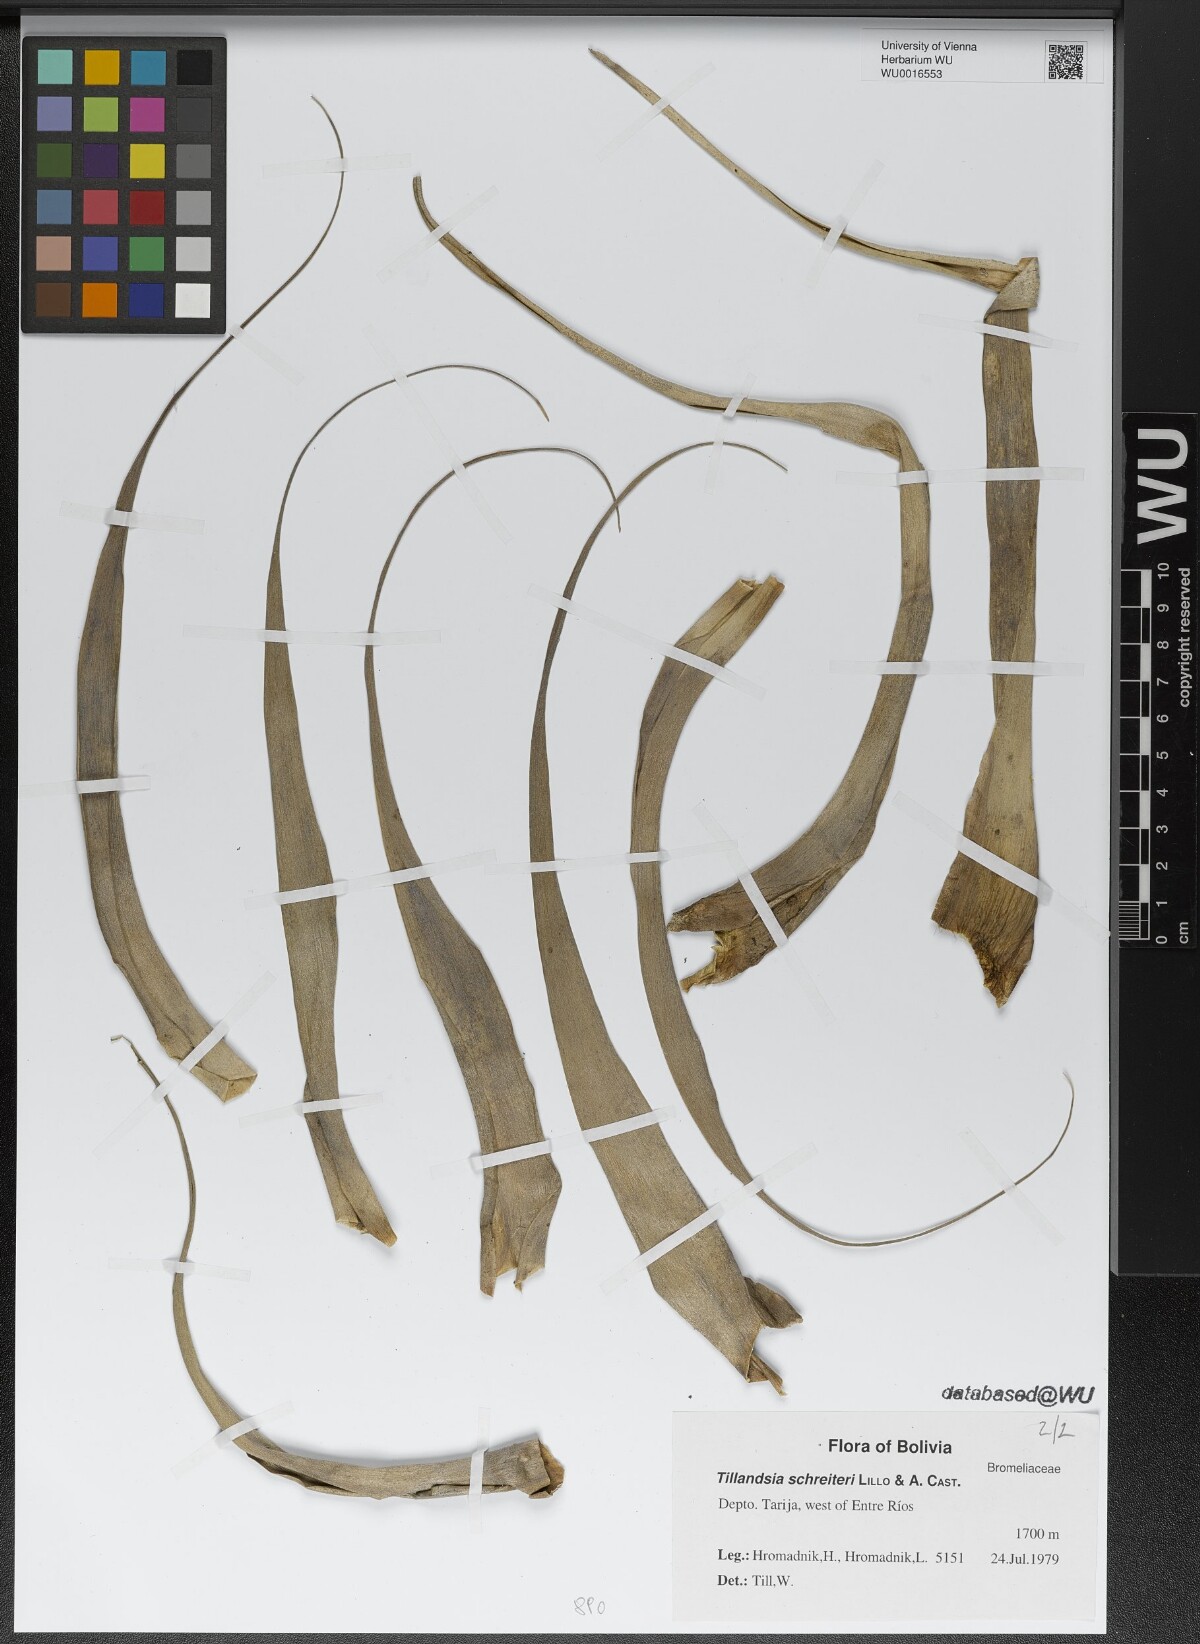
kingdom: Plantae
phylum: Tracheophyta
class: Liliopsida
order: Poales
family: Bromeliaceae
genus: Tillandsia
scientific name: Tillandsia schreiteri
